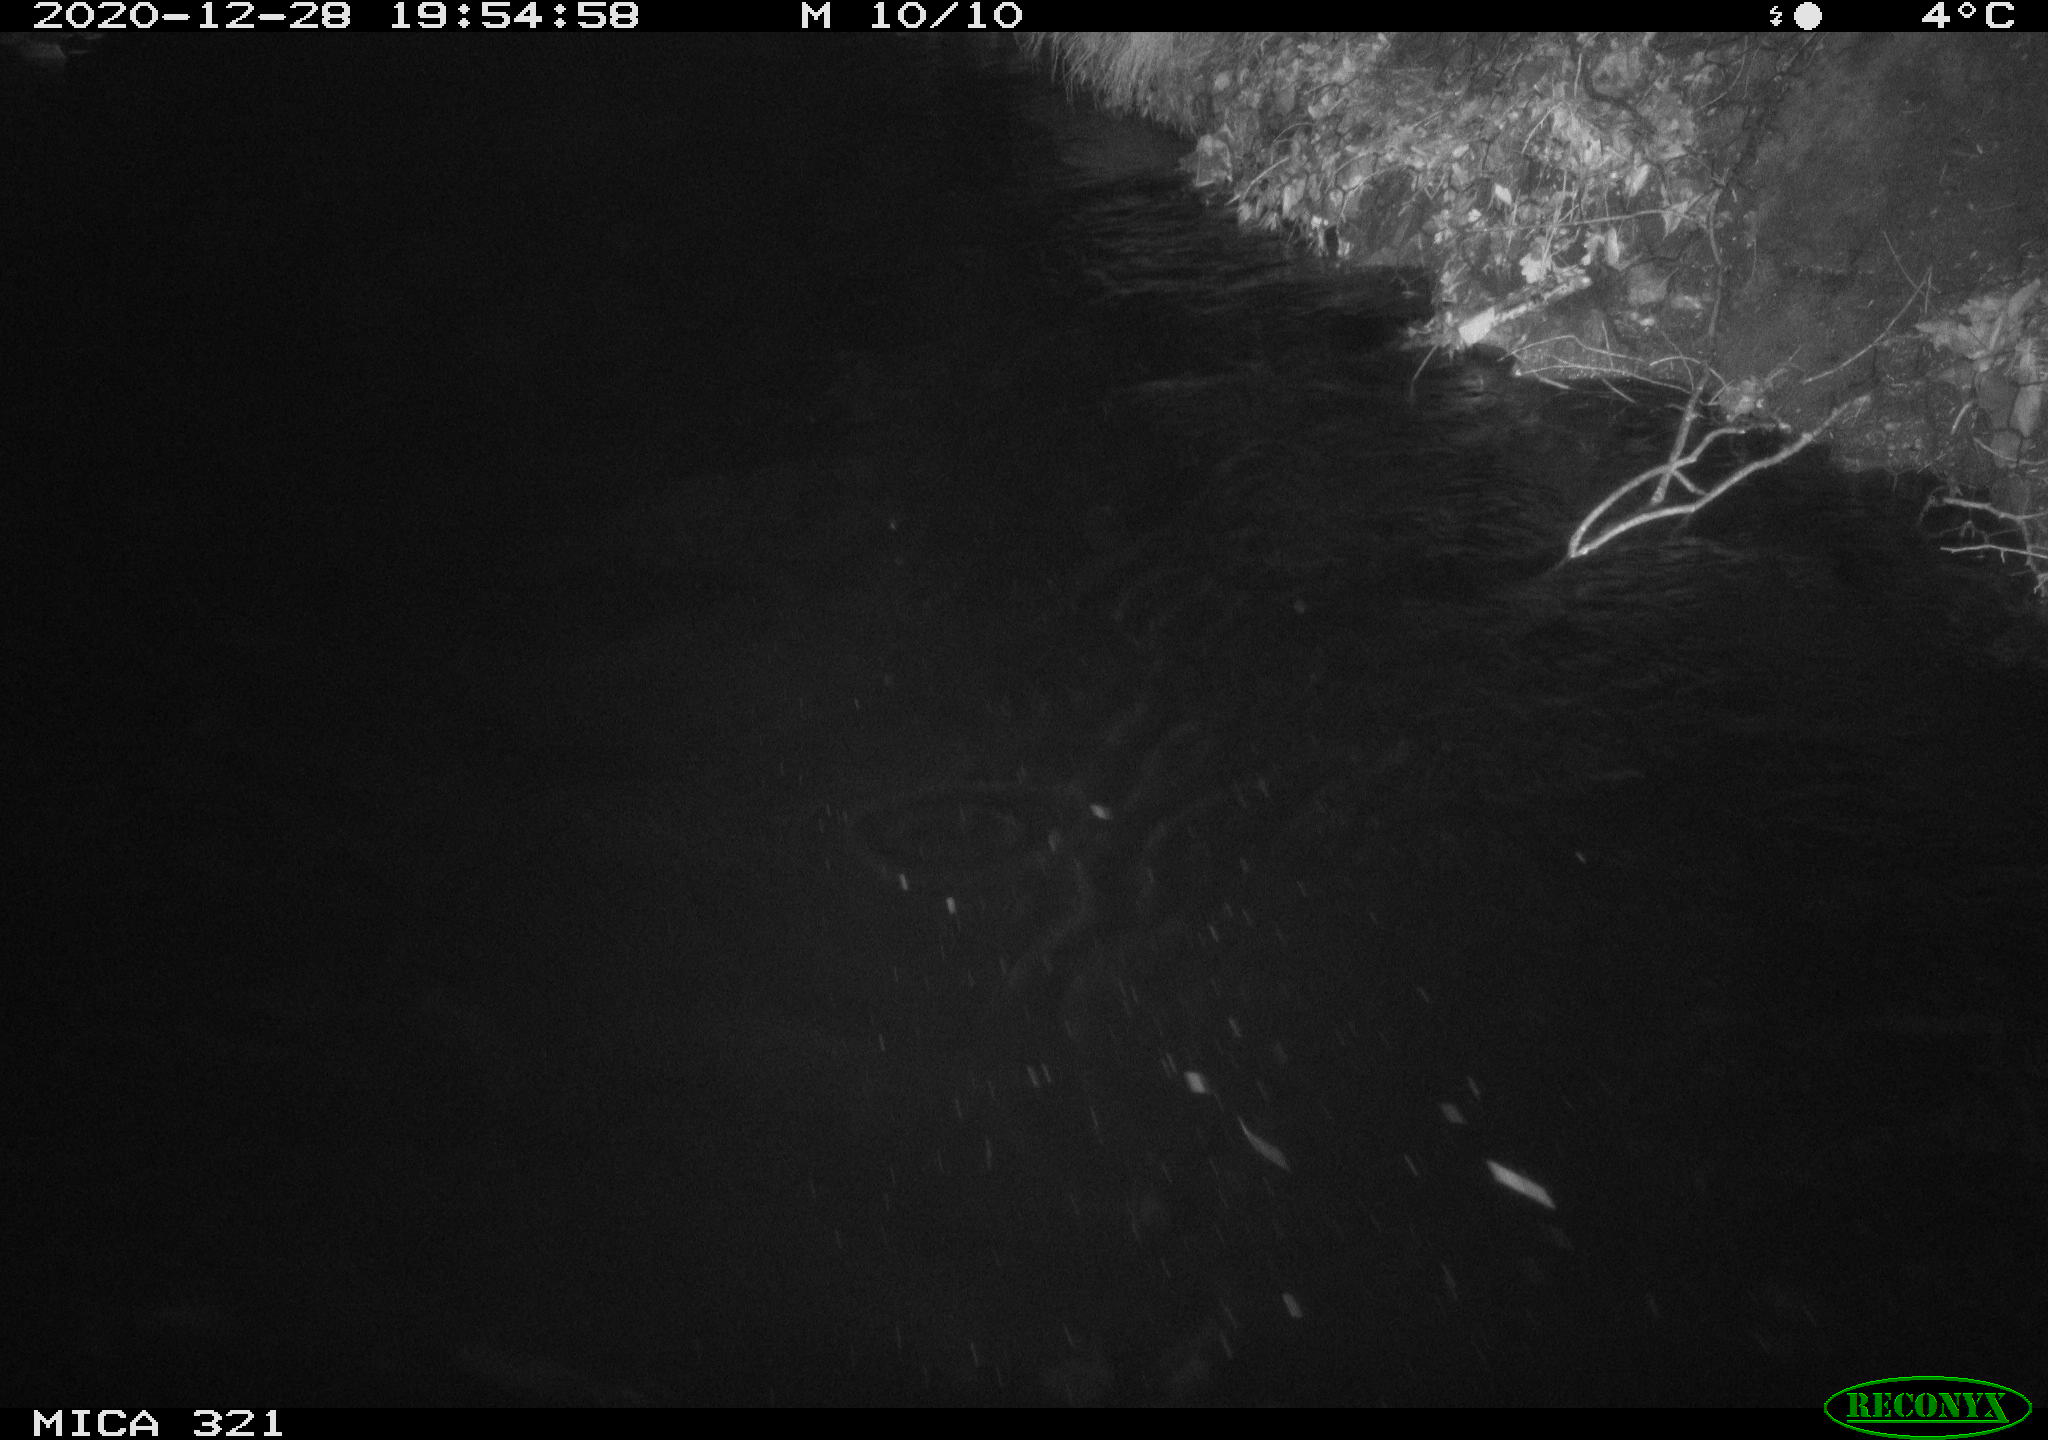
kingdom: Animalia
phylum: Chordata
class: Aves
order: Gruiformes
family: Rallidae
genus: Fulica
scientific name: Fulica atra
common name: Eurasian coot
